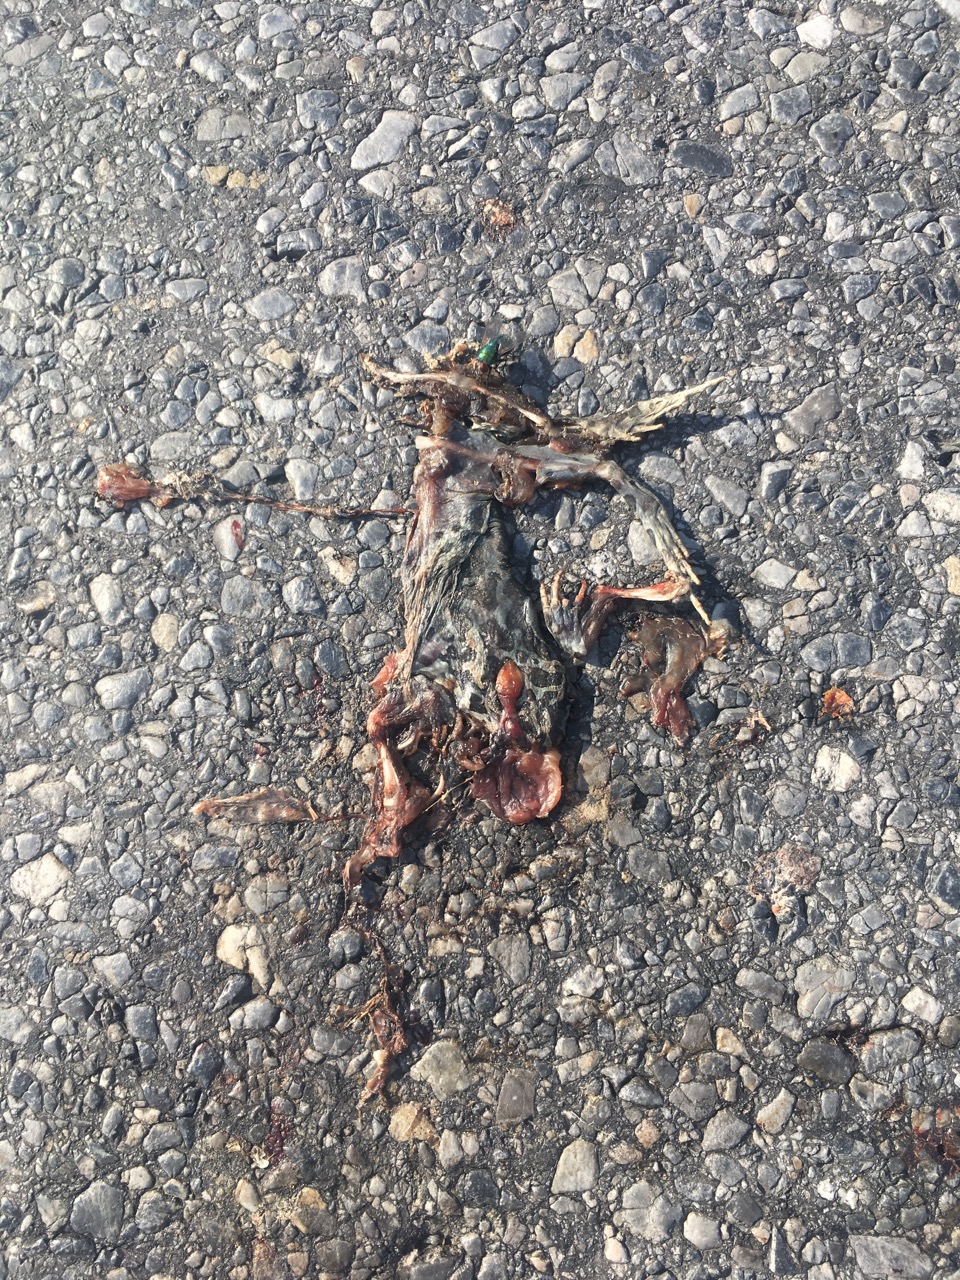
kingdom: Animalia
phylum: Chordata
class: Amphibia
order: Anura
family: Bufonidae
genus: Bufotes
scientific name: Bufotes viridis
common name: European green toad
